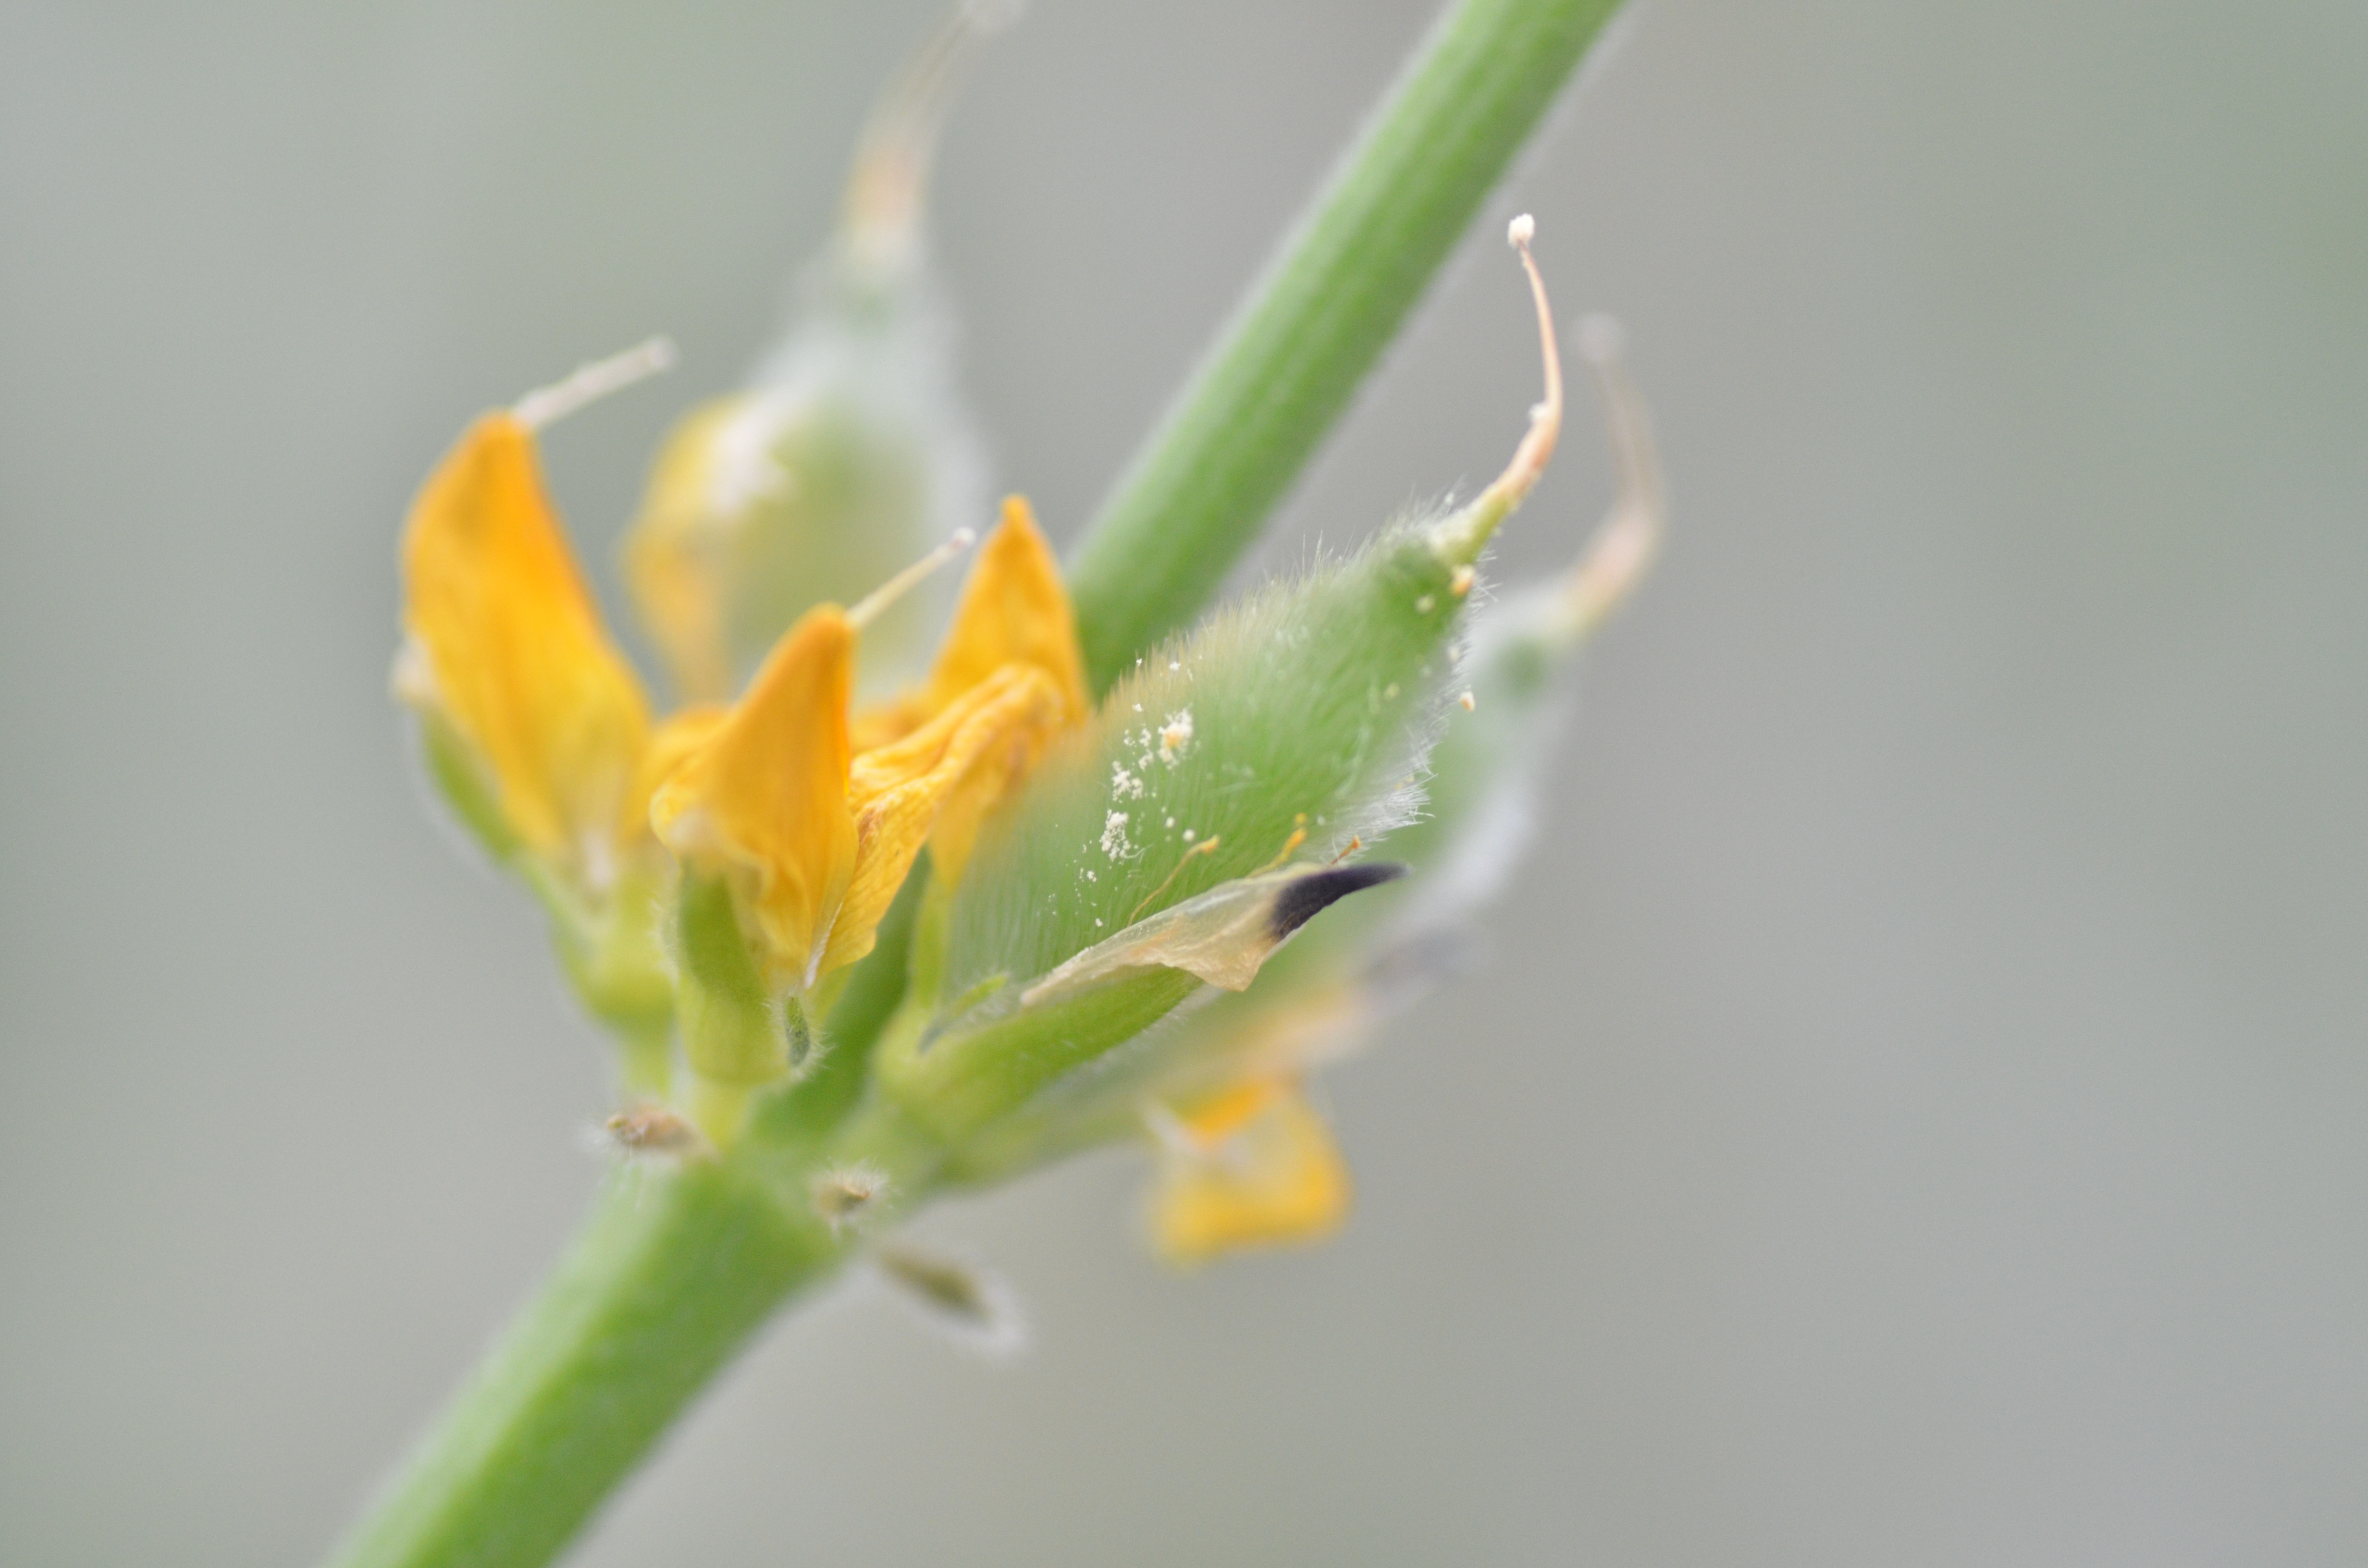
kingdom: Plantae
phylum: Tracheophyta
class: Magnoliopsida
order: Fabales
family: Fabaceae
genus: Lupinus
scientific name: Lupinus luteus
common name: European yellow lupine
